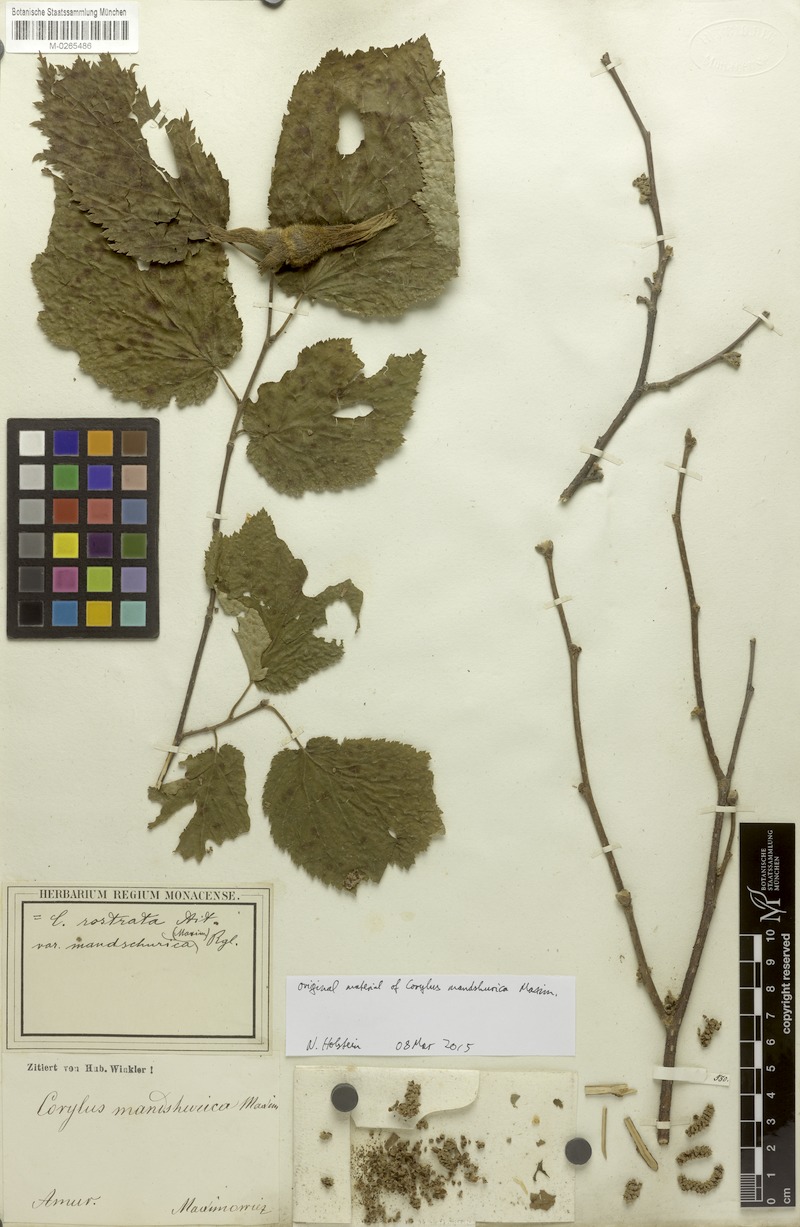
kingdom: Plantae
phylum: Tracheophyta
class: Magnoliopsida
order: Fagales
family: Betulaceae
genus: Corylus
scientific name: Corylus sieboldiana
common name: Japanese hazel
